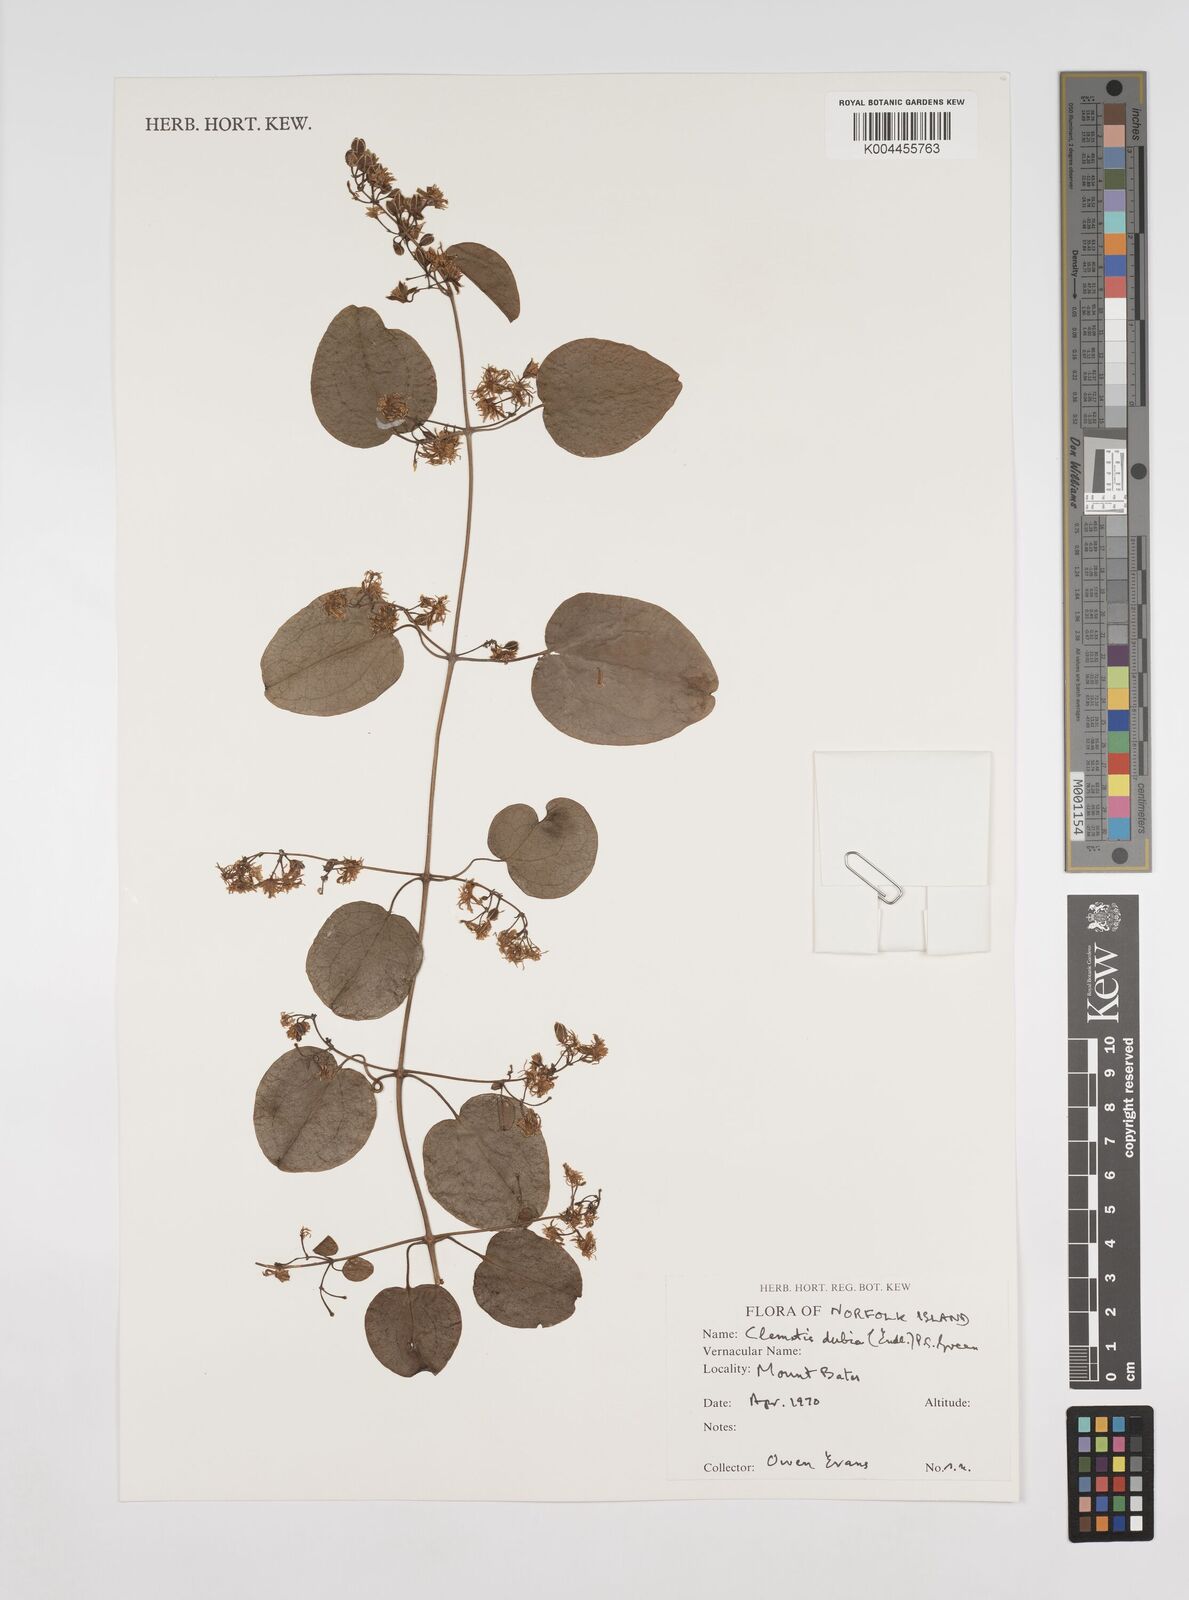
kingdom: Plantae
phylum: Tracheophyta
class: Magnoliopsida
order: Ranunculales
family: Ranunculaceae
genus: Clematis
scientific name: Clematis dubia
